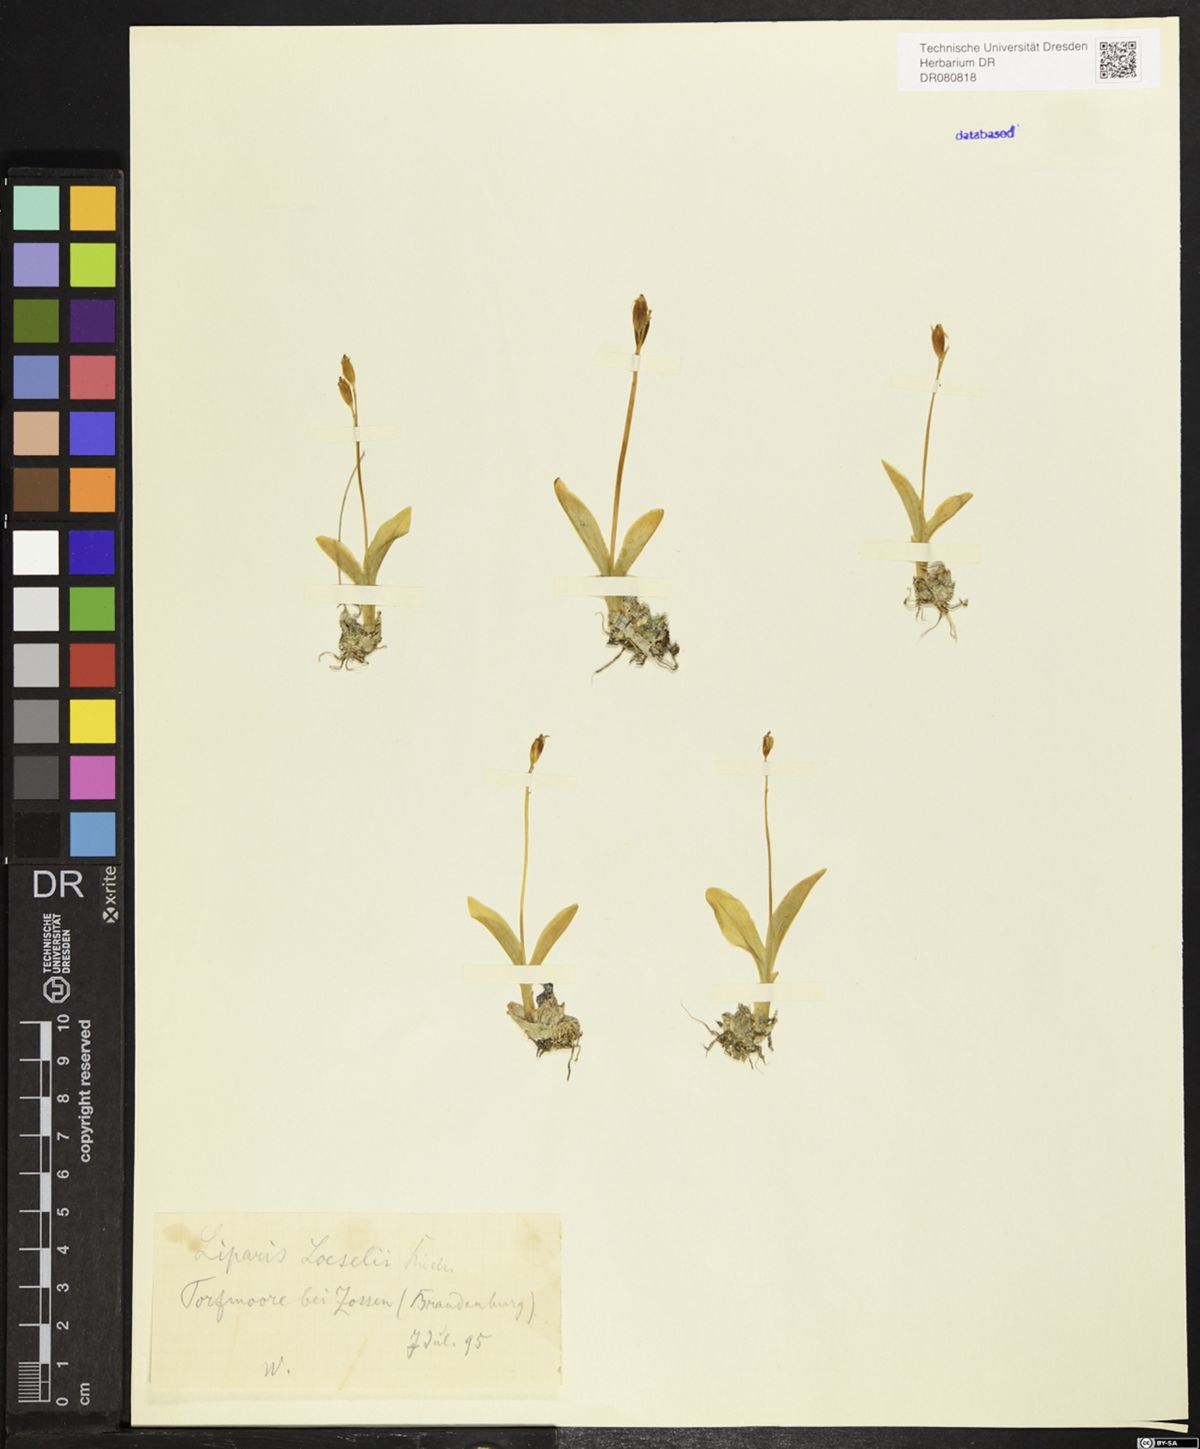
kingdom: Animalia
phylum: Arthropoda
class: Insecta
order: Coleoptera
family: Curculionidae
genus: Liparis
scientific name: Liparis loeselii
